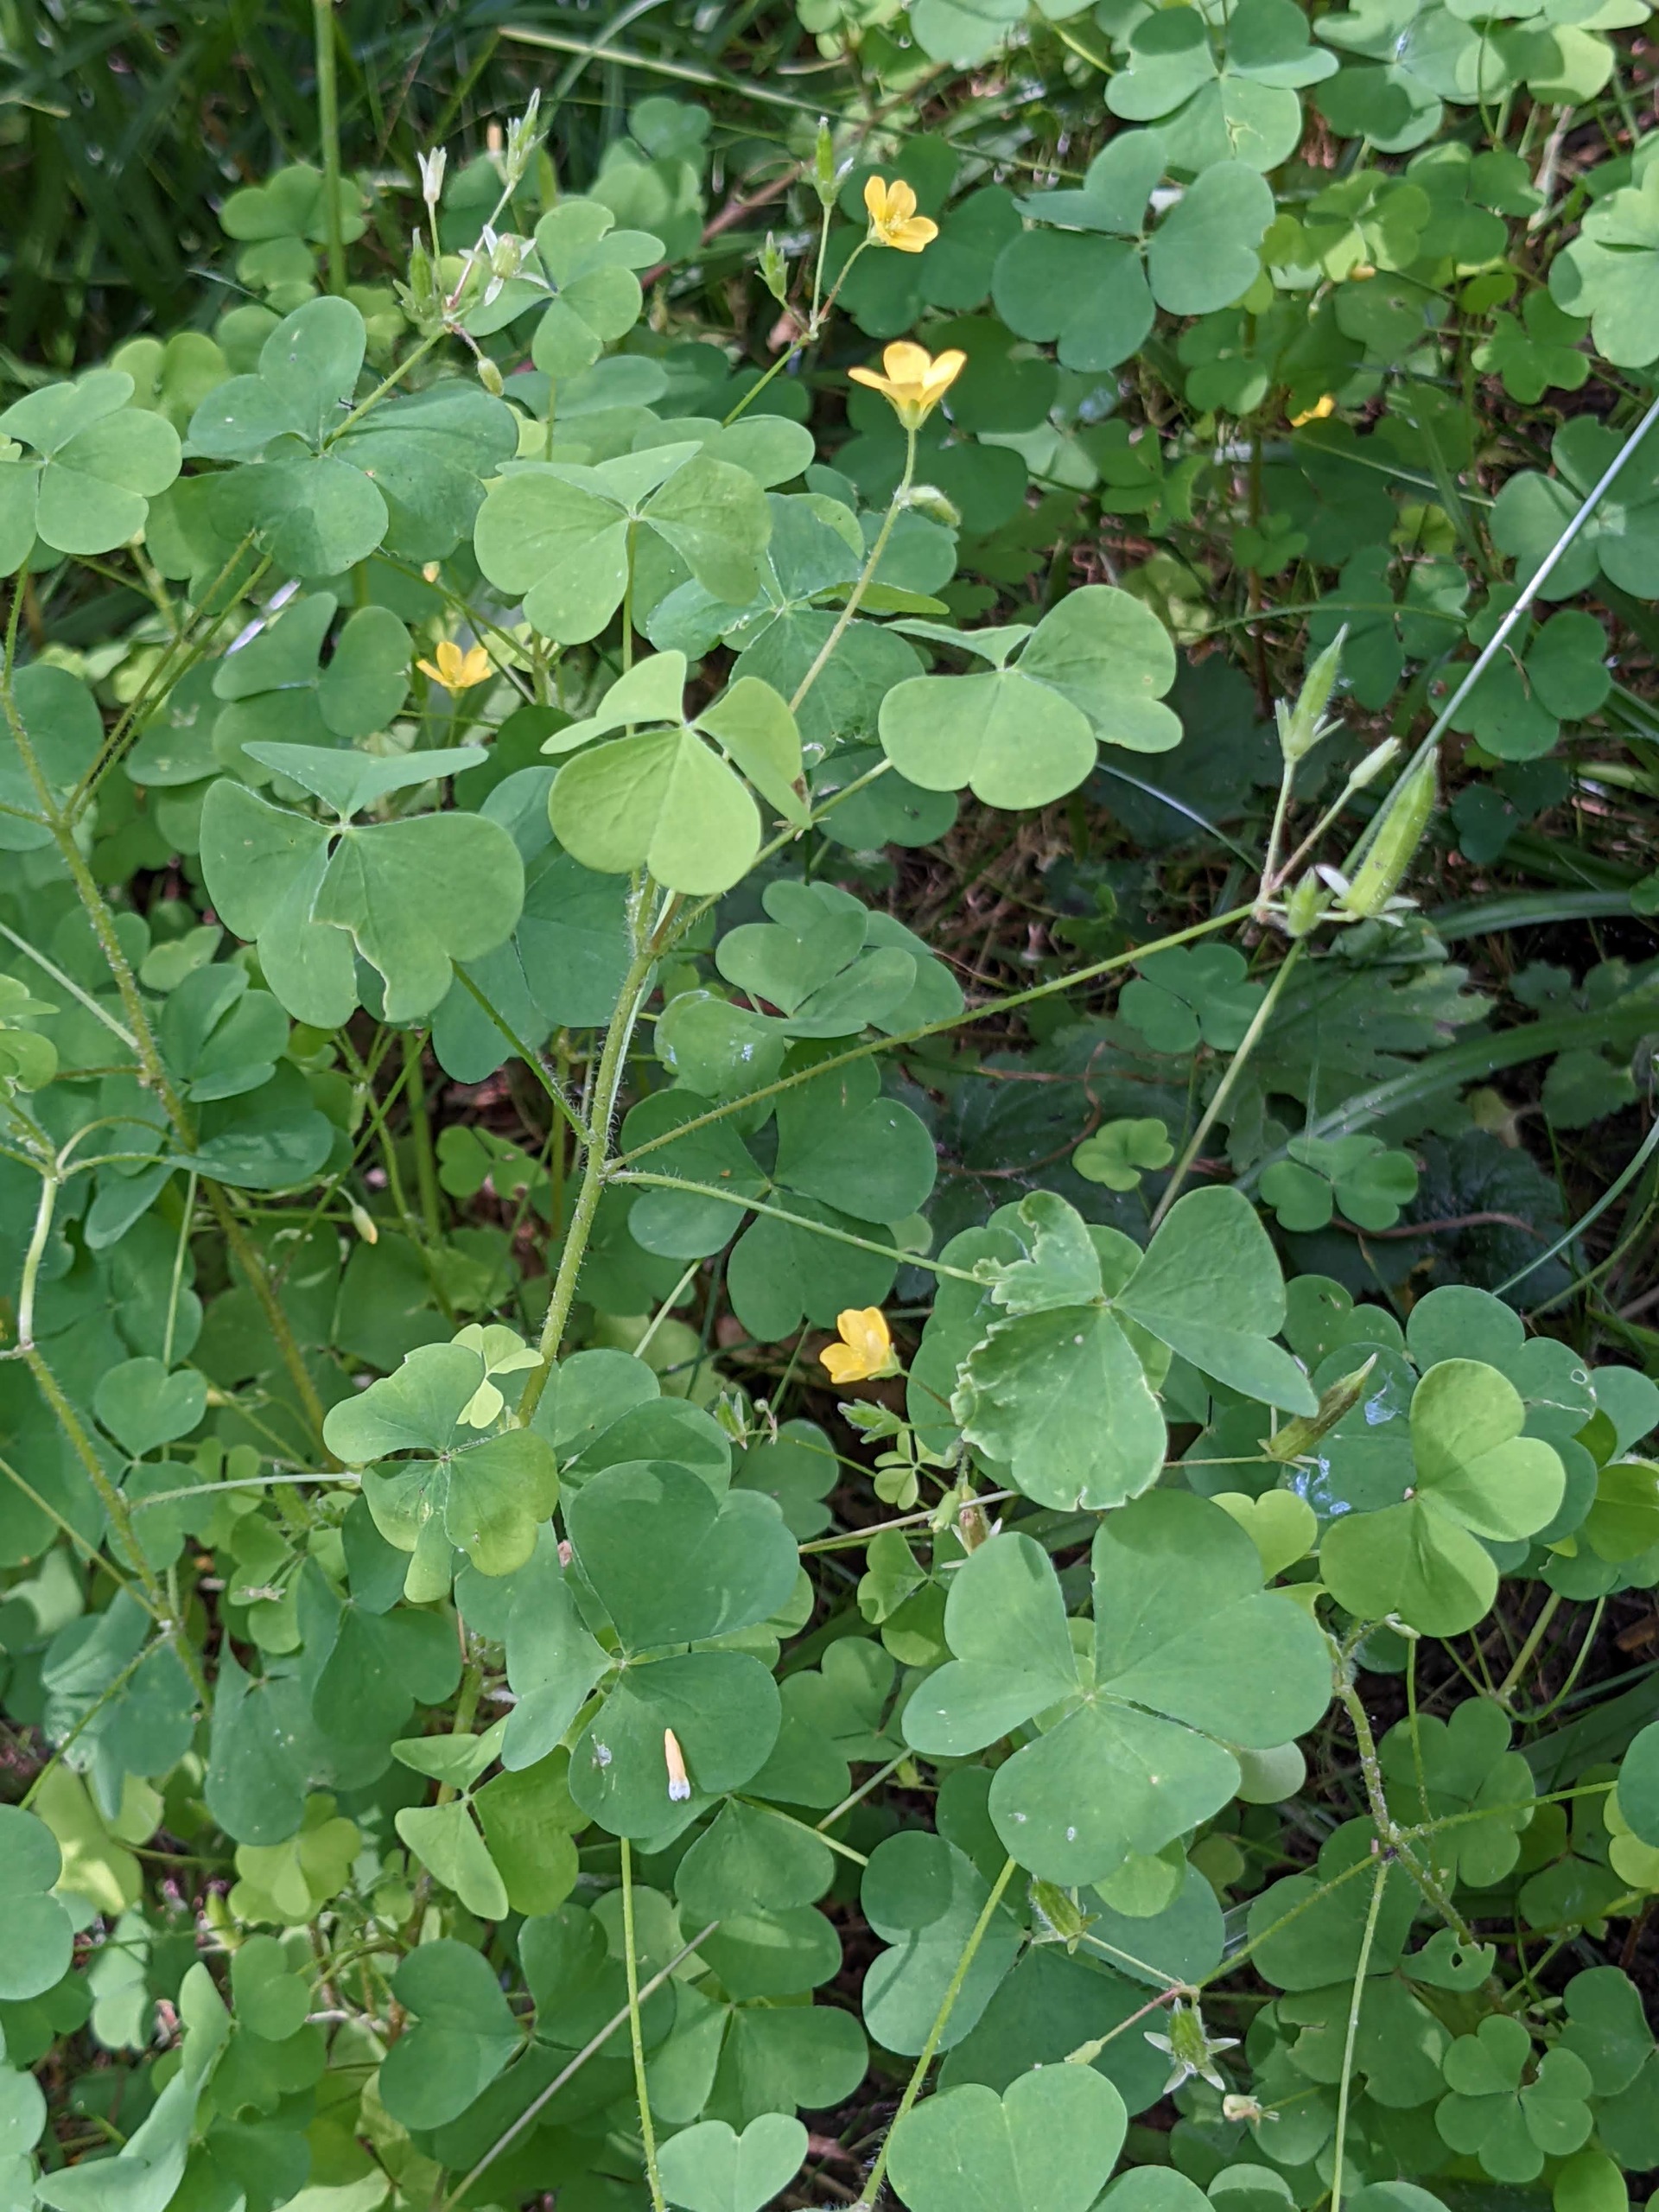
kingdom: Plantae
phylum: Tracheophyta
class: Magnoliopsida
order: Oxalidales
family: Oxalidaceae
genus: Oxalis
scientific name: Oxalis stricta
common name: Rank surkløver
